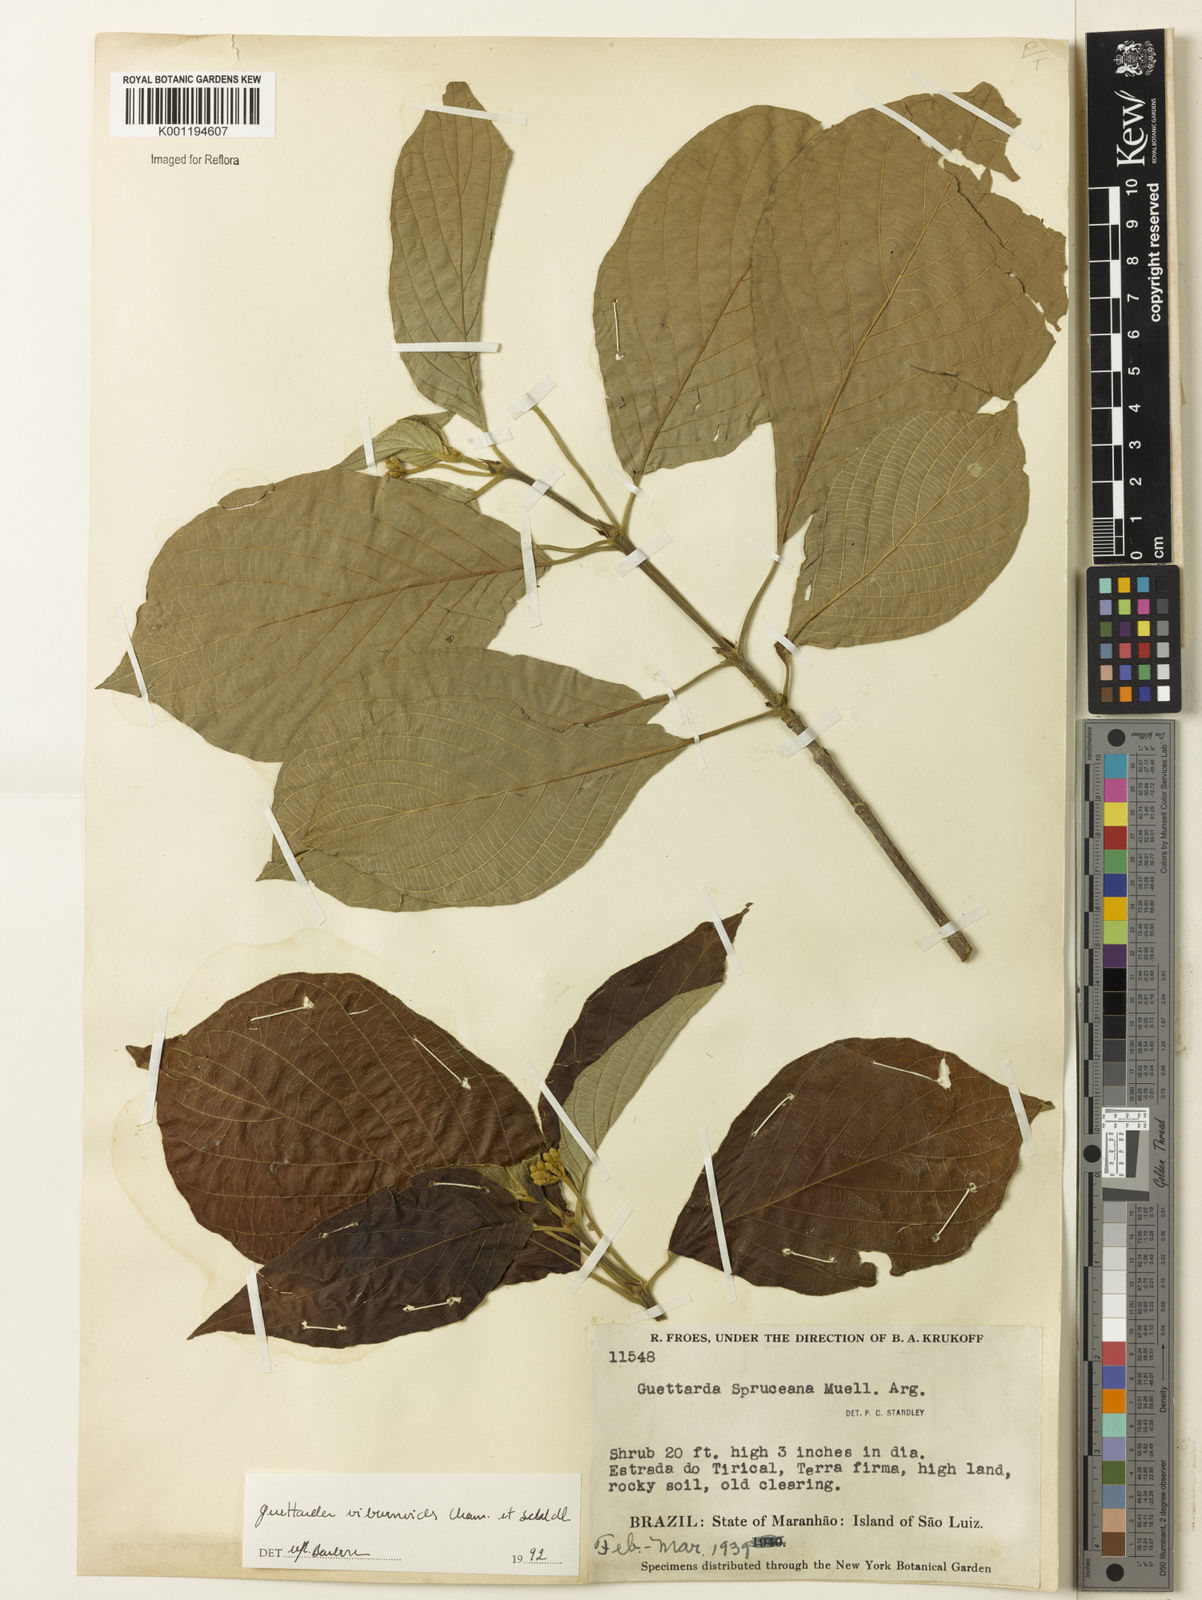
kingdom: Plantae
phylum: Tracheophyta
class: Magnoliopsida
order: Gentianales
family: Rubiaceae
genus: Guettarda
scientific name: Guettarda viburnoides
